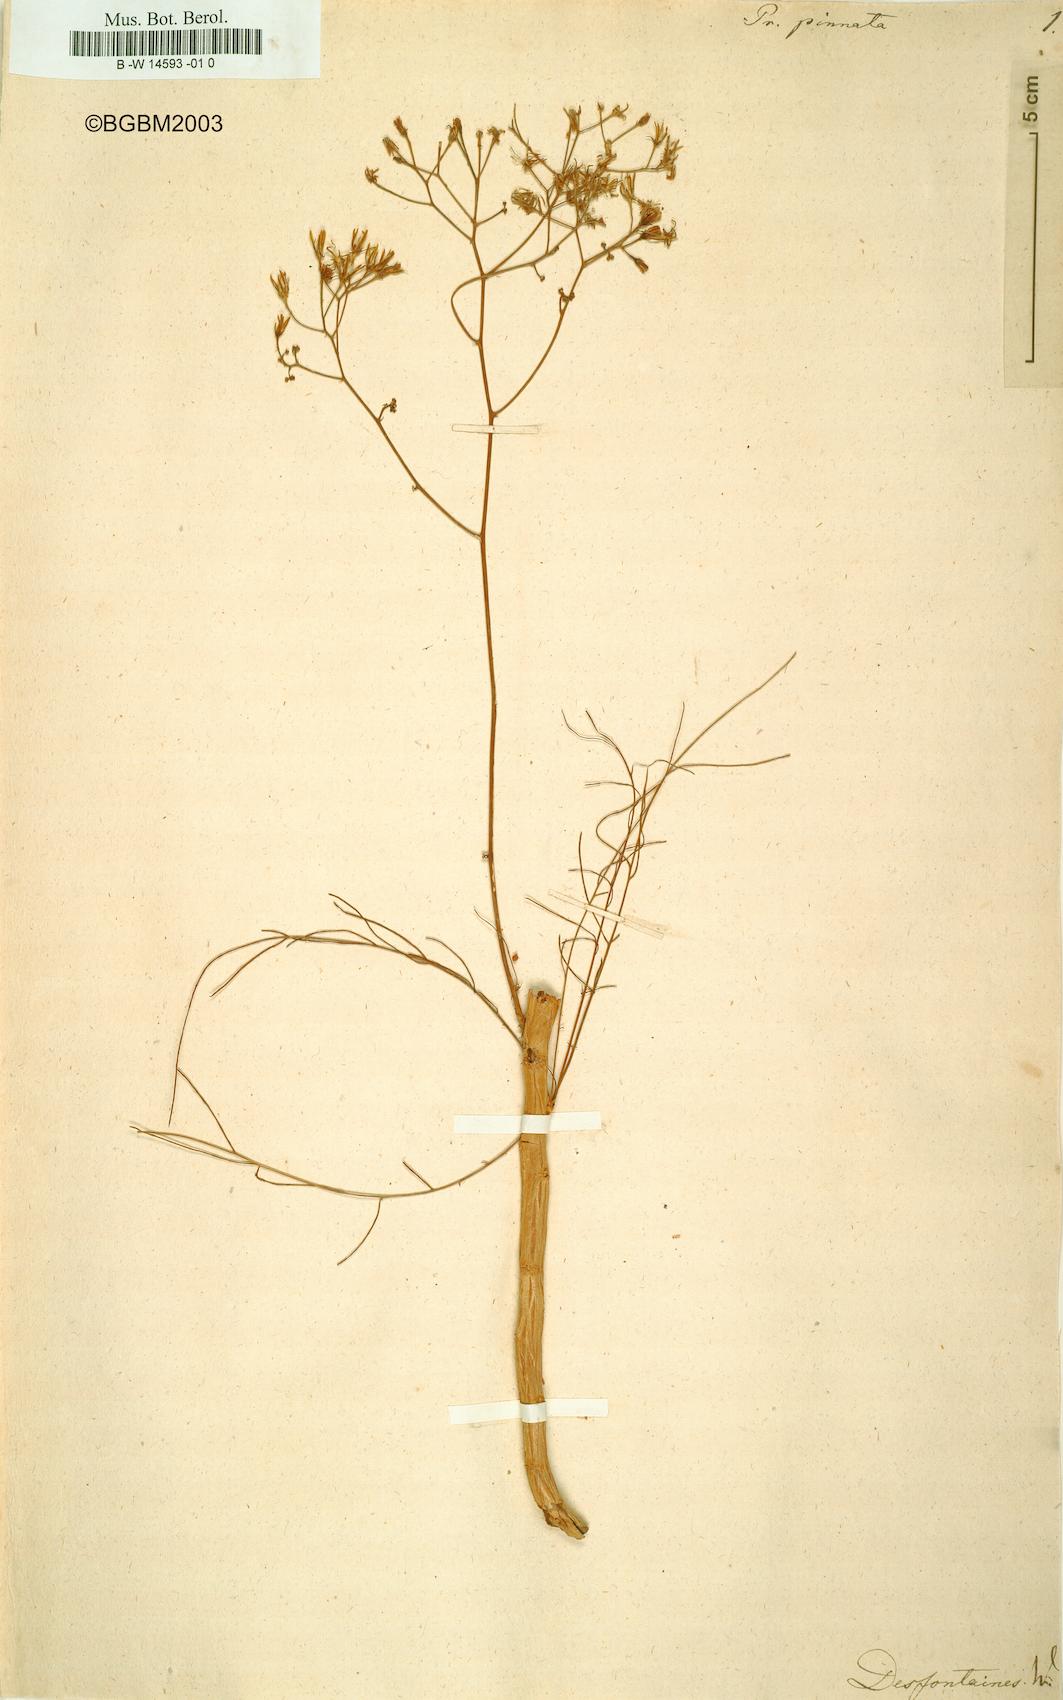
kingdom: Plantae
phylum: Tracheophyta
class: Magnoliopsida
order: Asterales
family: Asteraceae
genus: Sonchus
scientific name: Sonchus leptocephalus
